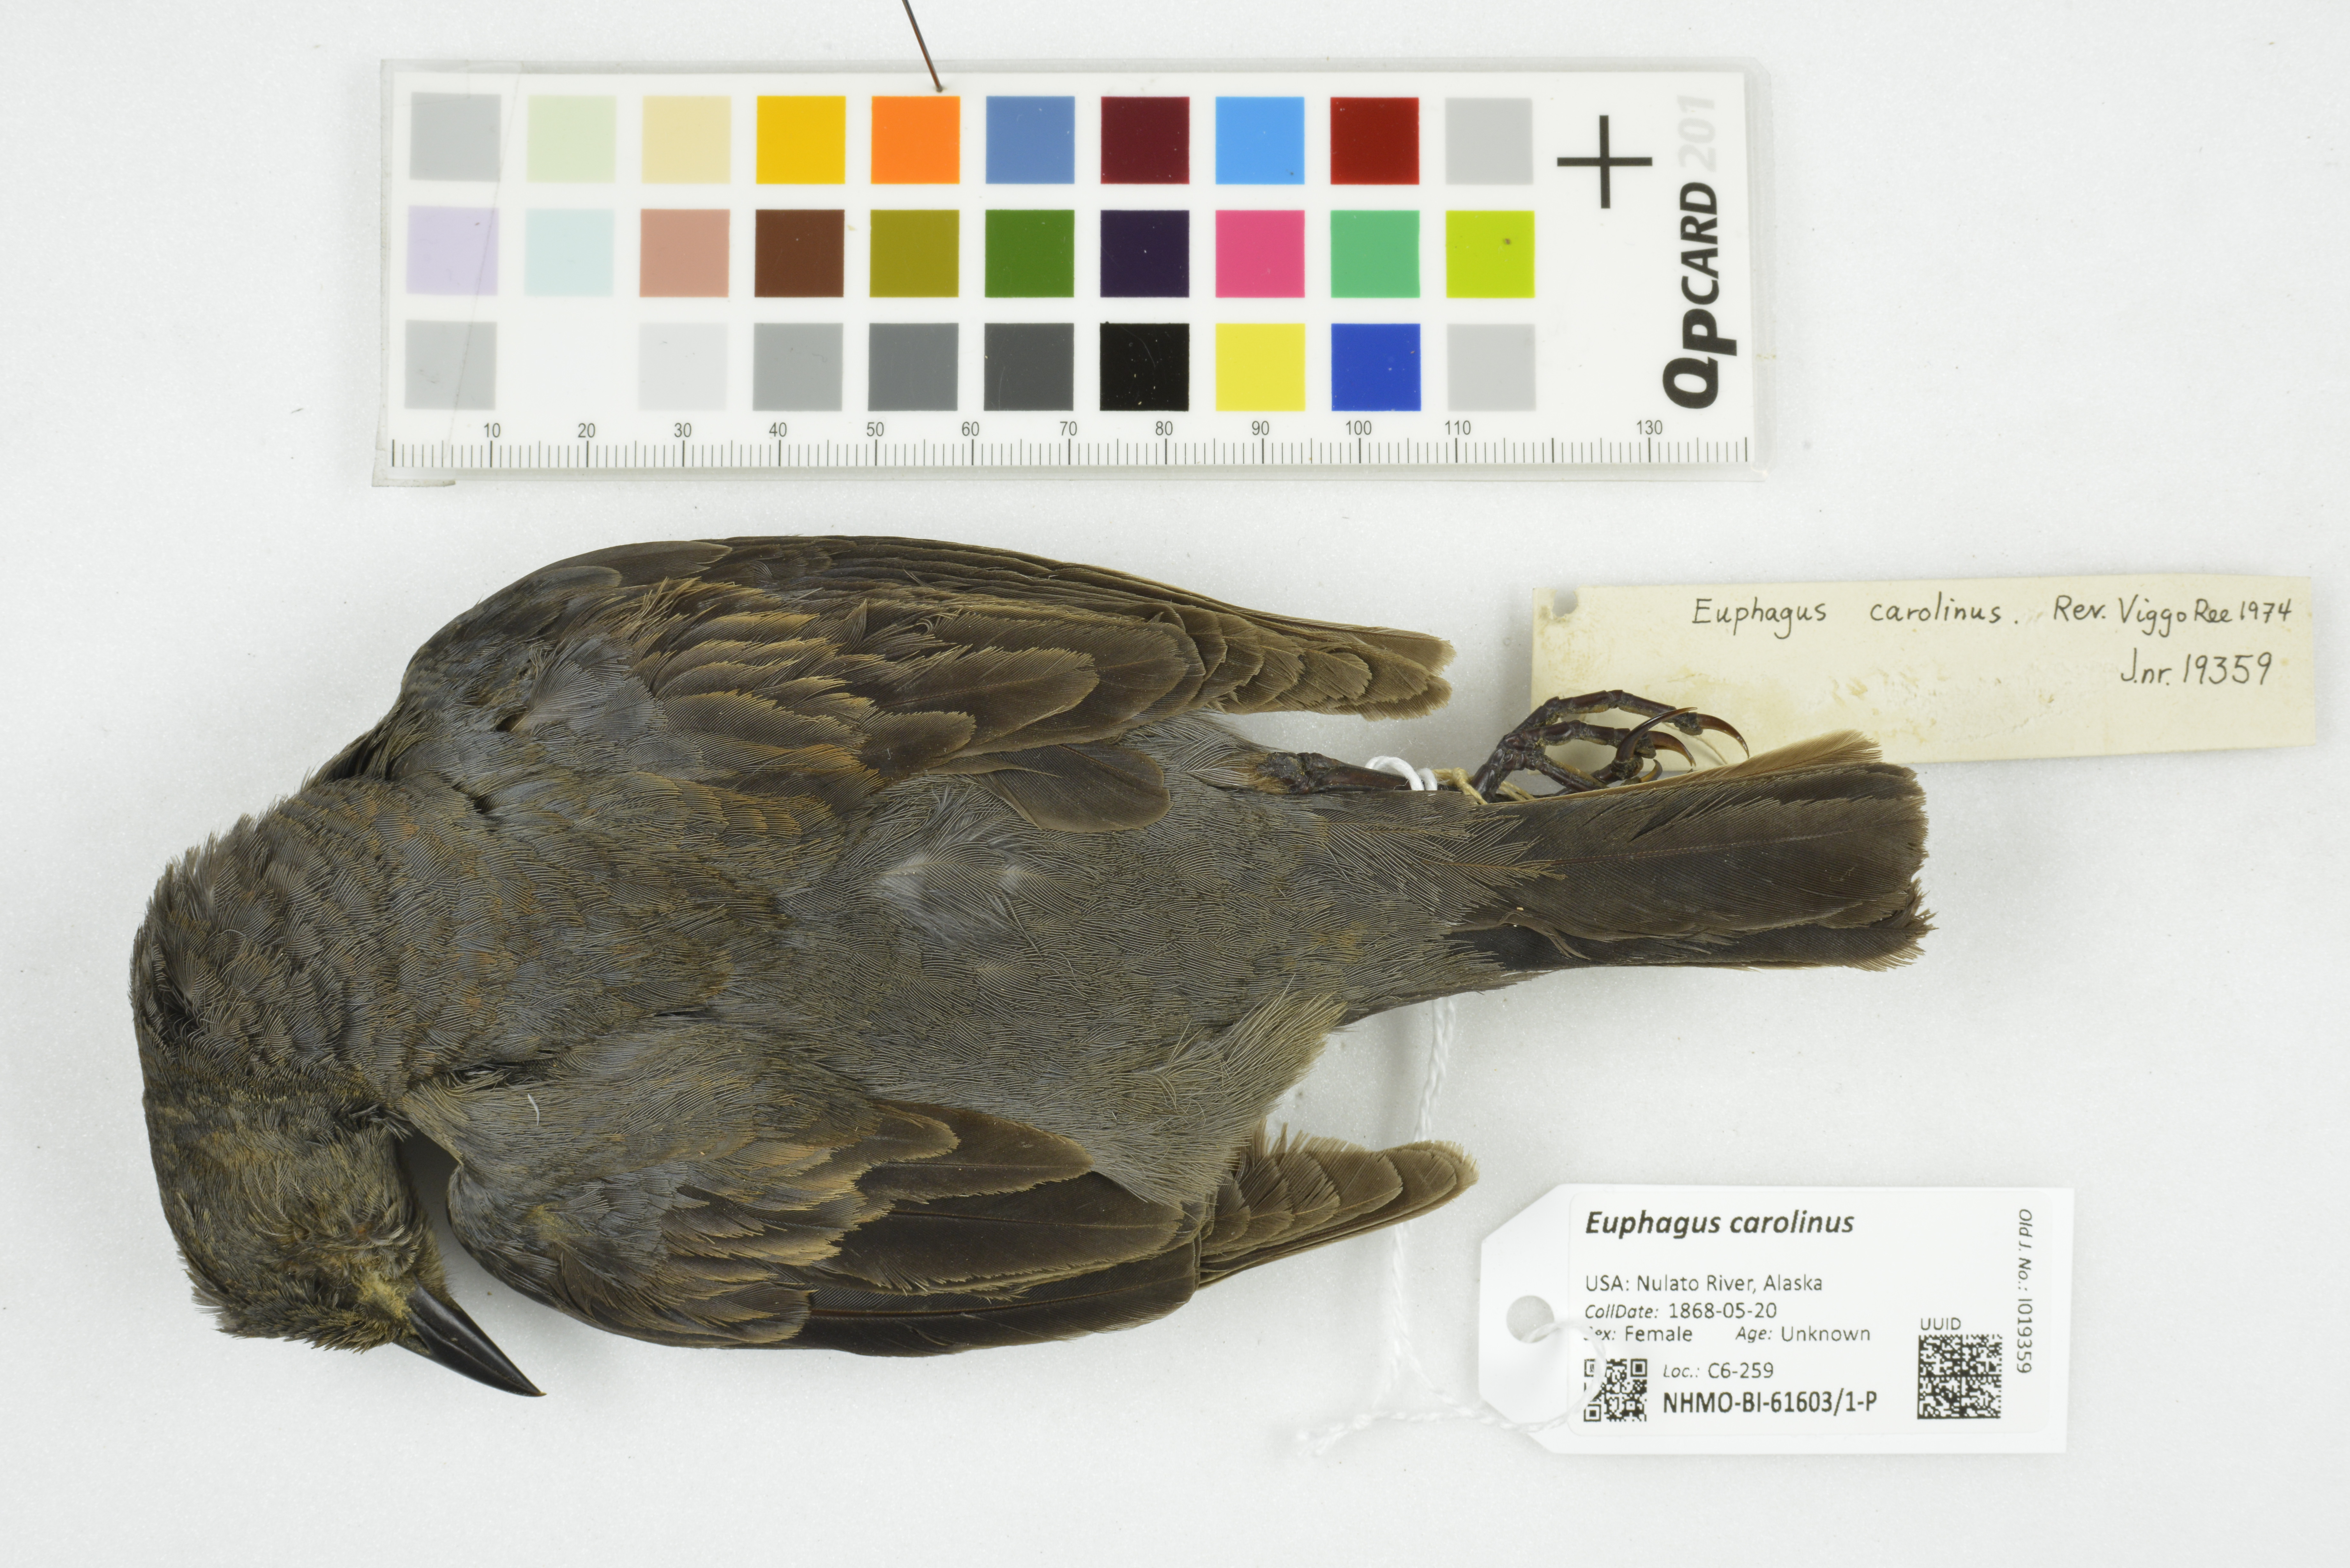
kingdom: Animalia
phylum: Chordata
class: Aves
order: Passeriformes
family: Icteridae
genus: Euphagus
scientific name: Euphagus carolinus
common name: Rusty blackbird
